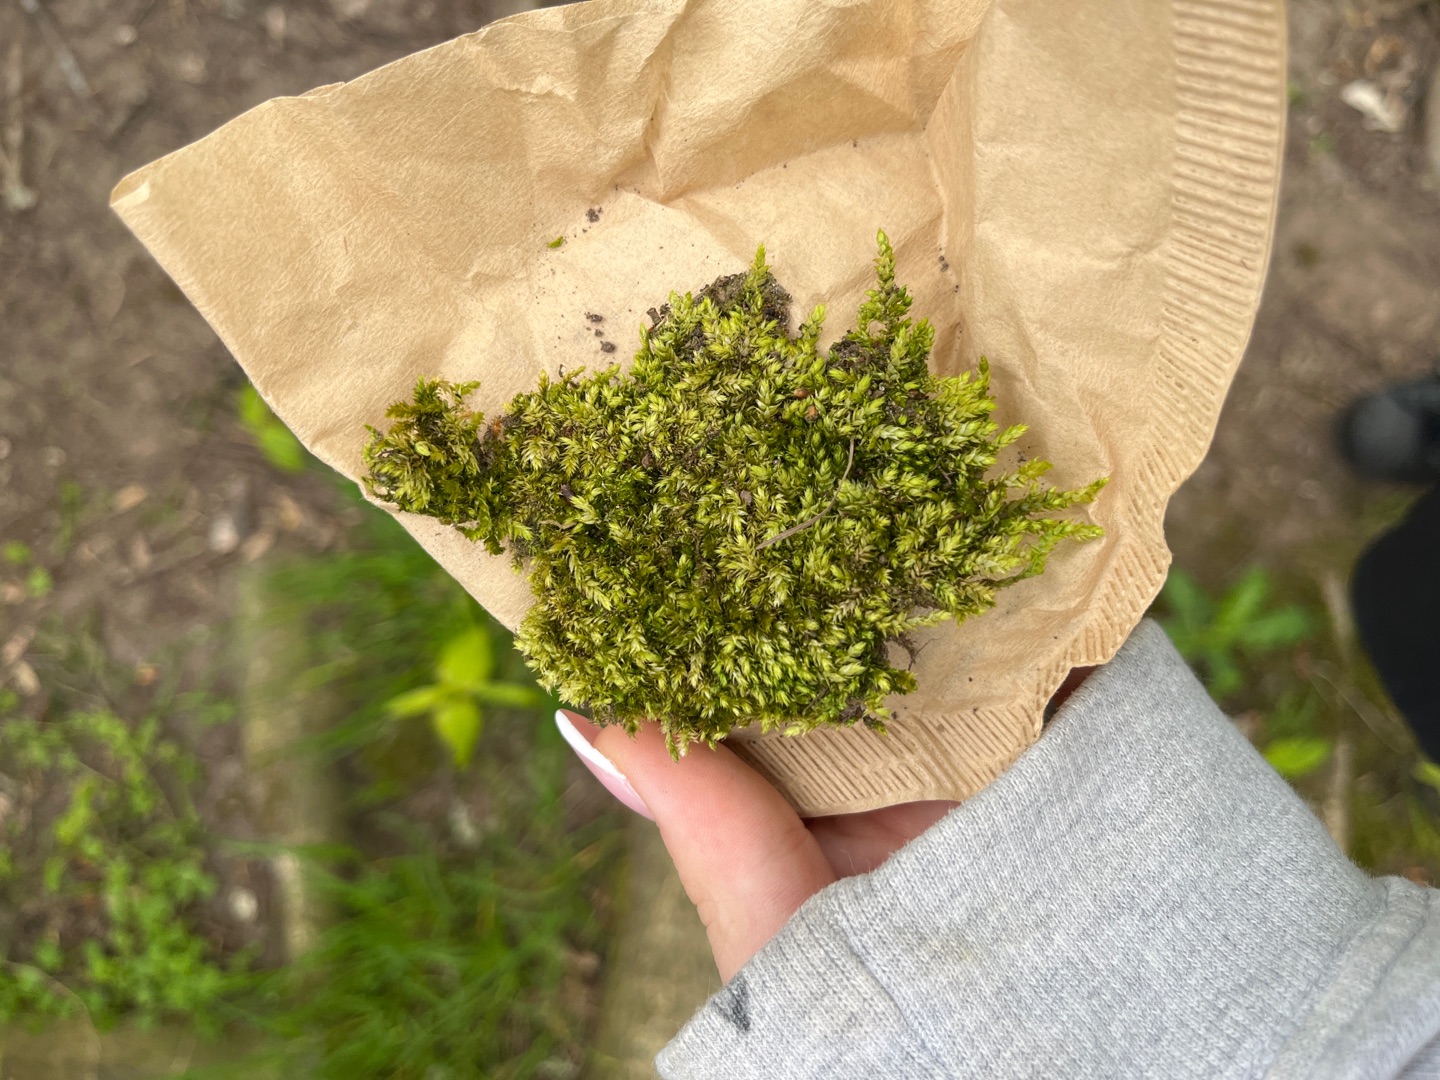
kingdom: Plantae
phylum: Bryophyta
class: Bryopsida
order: Hypnales
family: Brachytheciaceae
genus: Brachythecium
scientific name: Brachythecium rutabulum
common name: Almindelig kortkapsel
